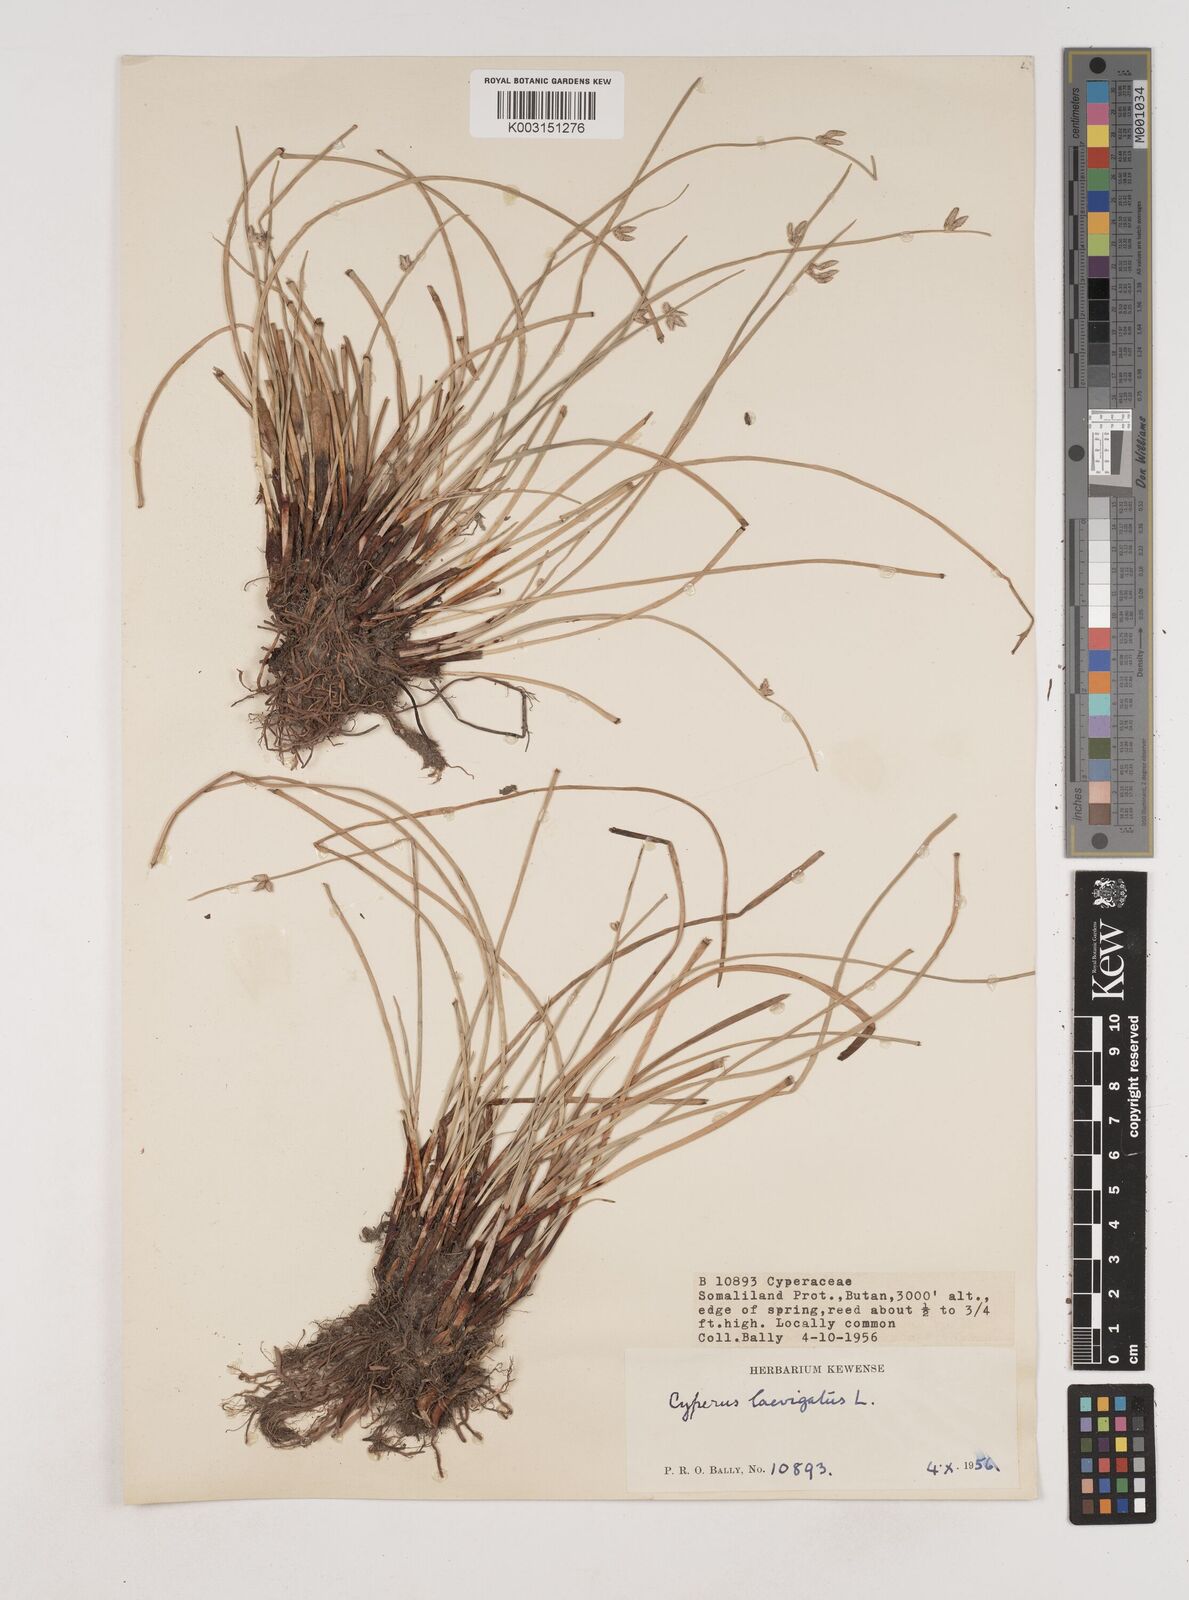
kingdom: Plantae
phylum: Tracheophyta
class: Liliopsida
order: Poales
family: Cyperaceae
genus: Cyperus
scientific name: Cyperus laevigatus
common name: Smooth flat sedge
